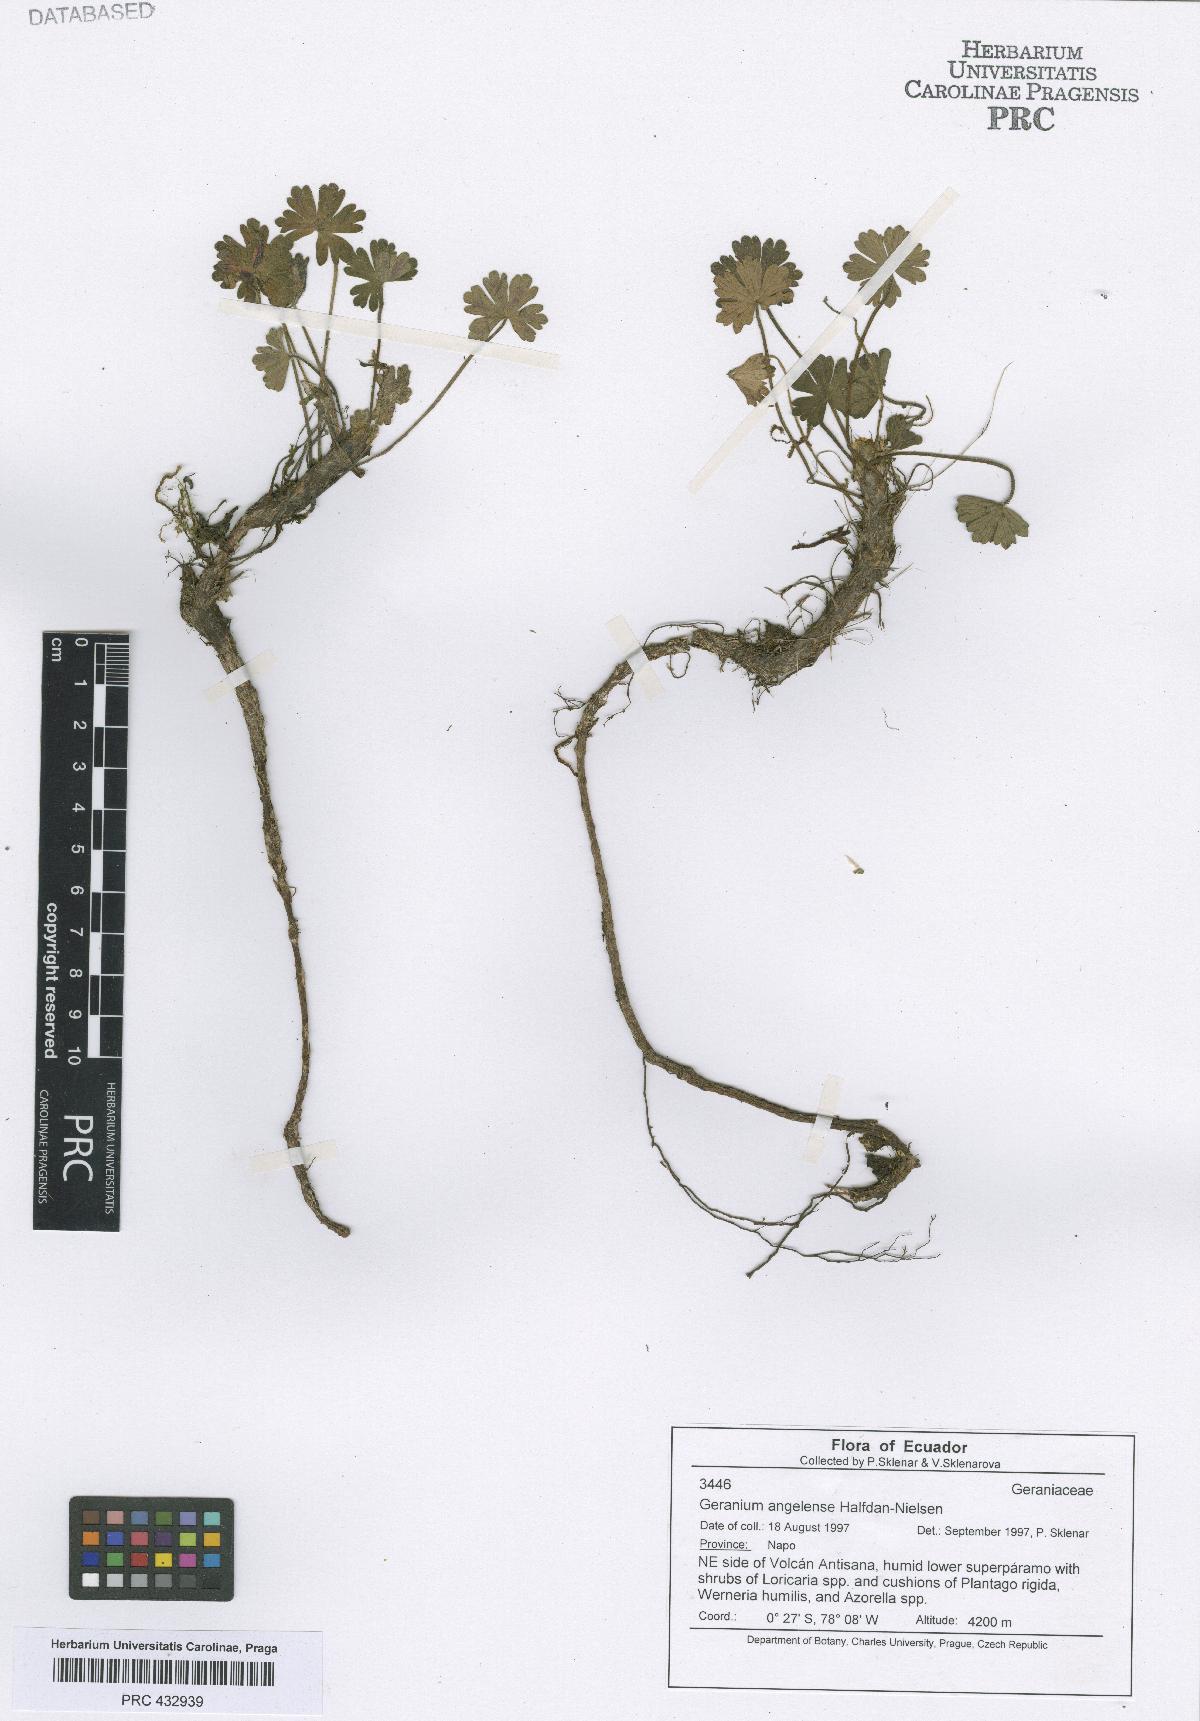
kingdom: Plantae
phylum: Tracheophyta
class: Magnoliopsida
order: Geraniales
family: Geraniaceae
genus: Geranium
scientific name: Geranium stramineum
